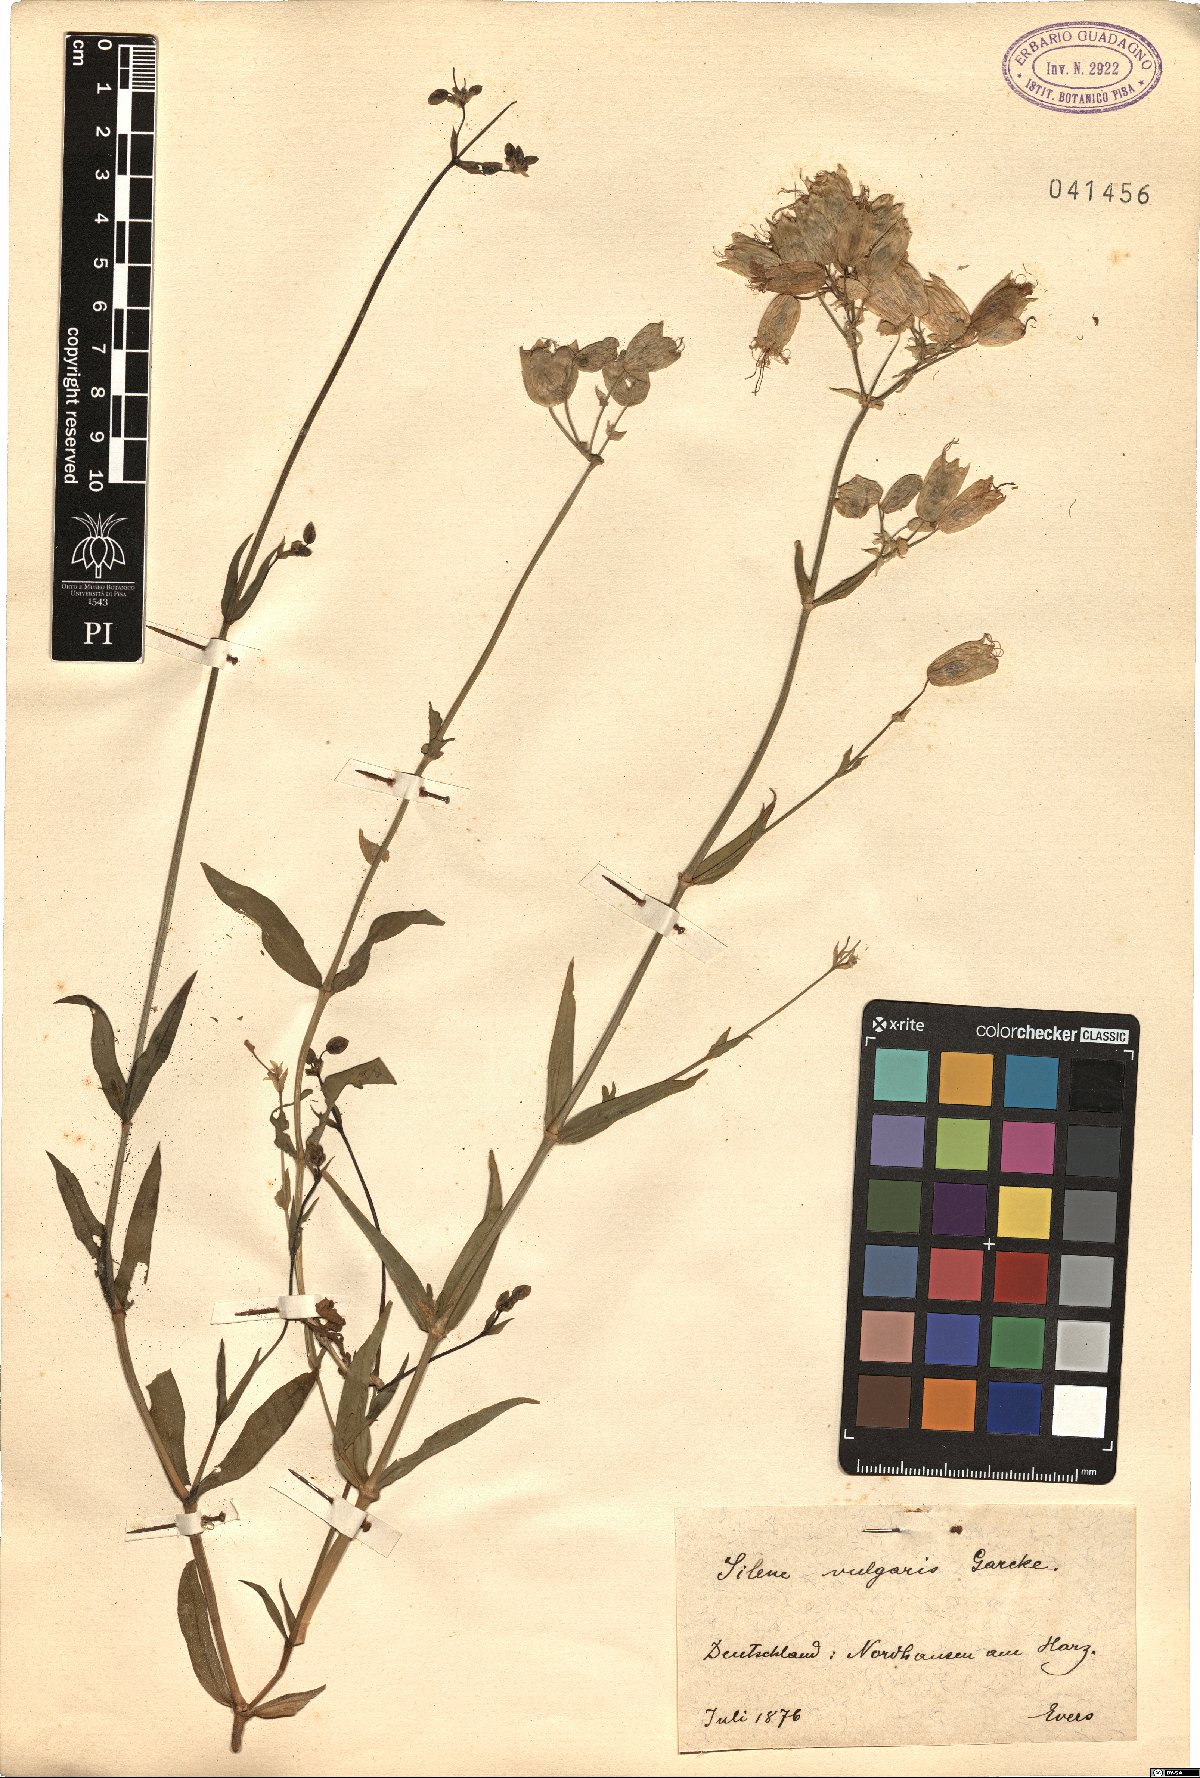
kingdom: Plantae
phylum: Tracheophyta
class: Magnoliopsida
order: Caryophyllales
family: Caryophyllaceae
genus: Silene
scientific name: Silene vulgaris
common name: Bladder campion
